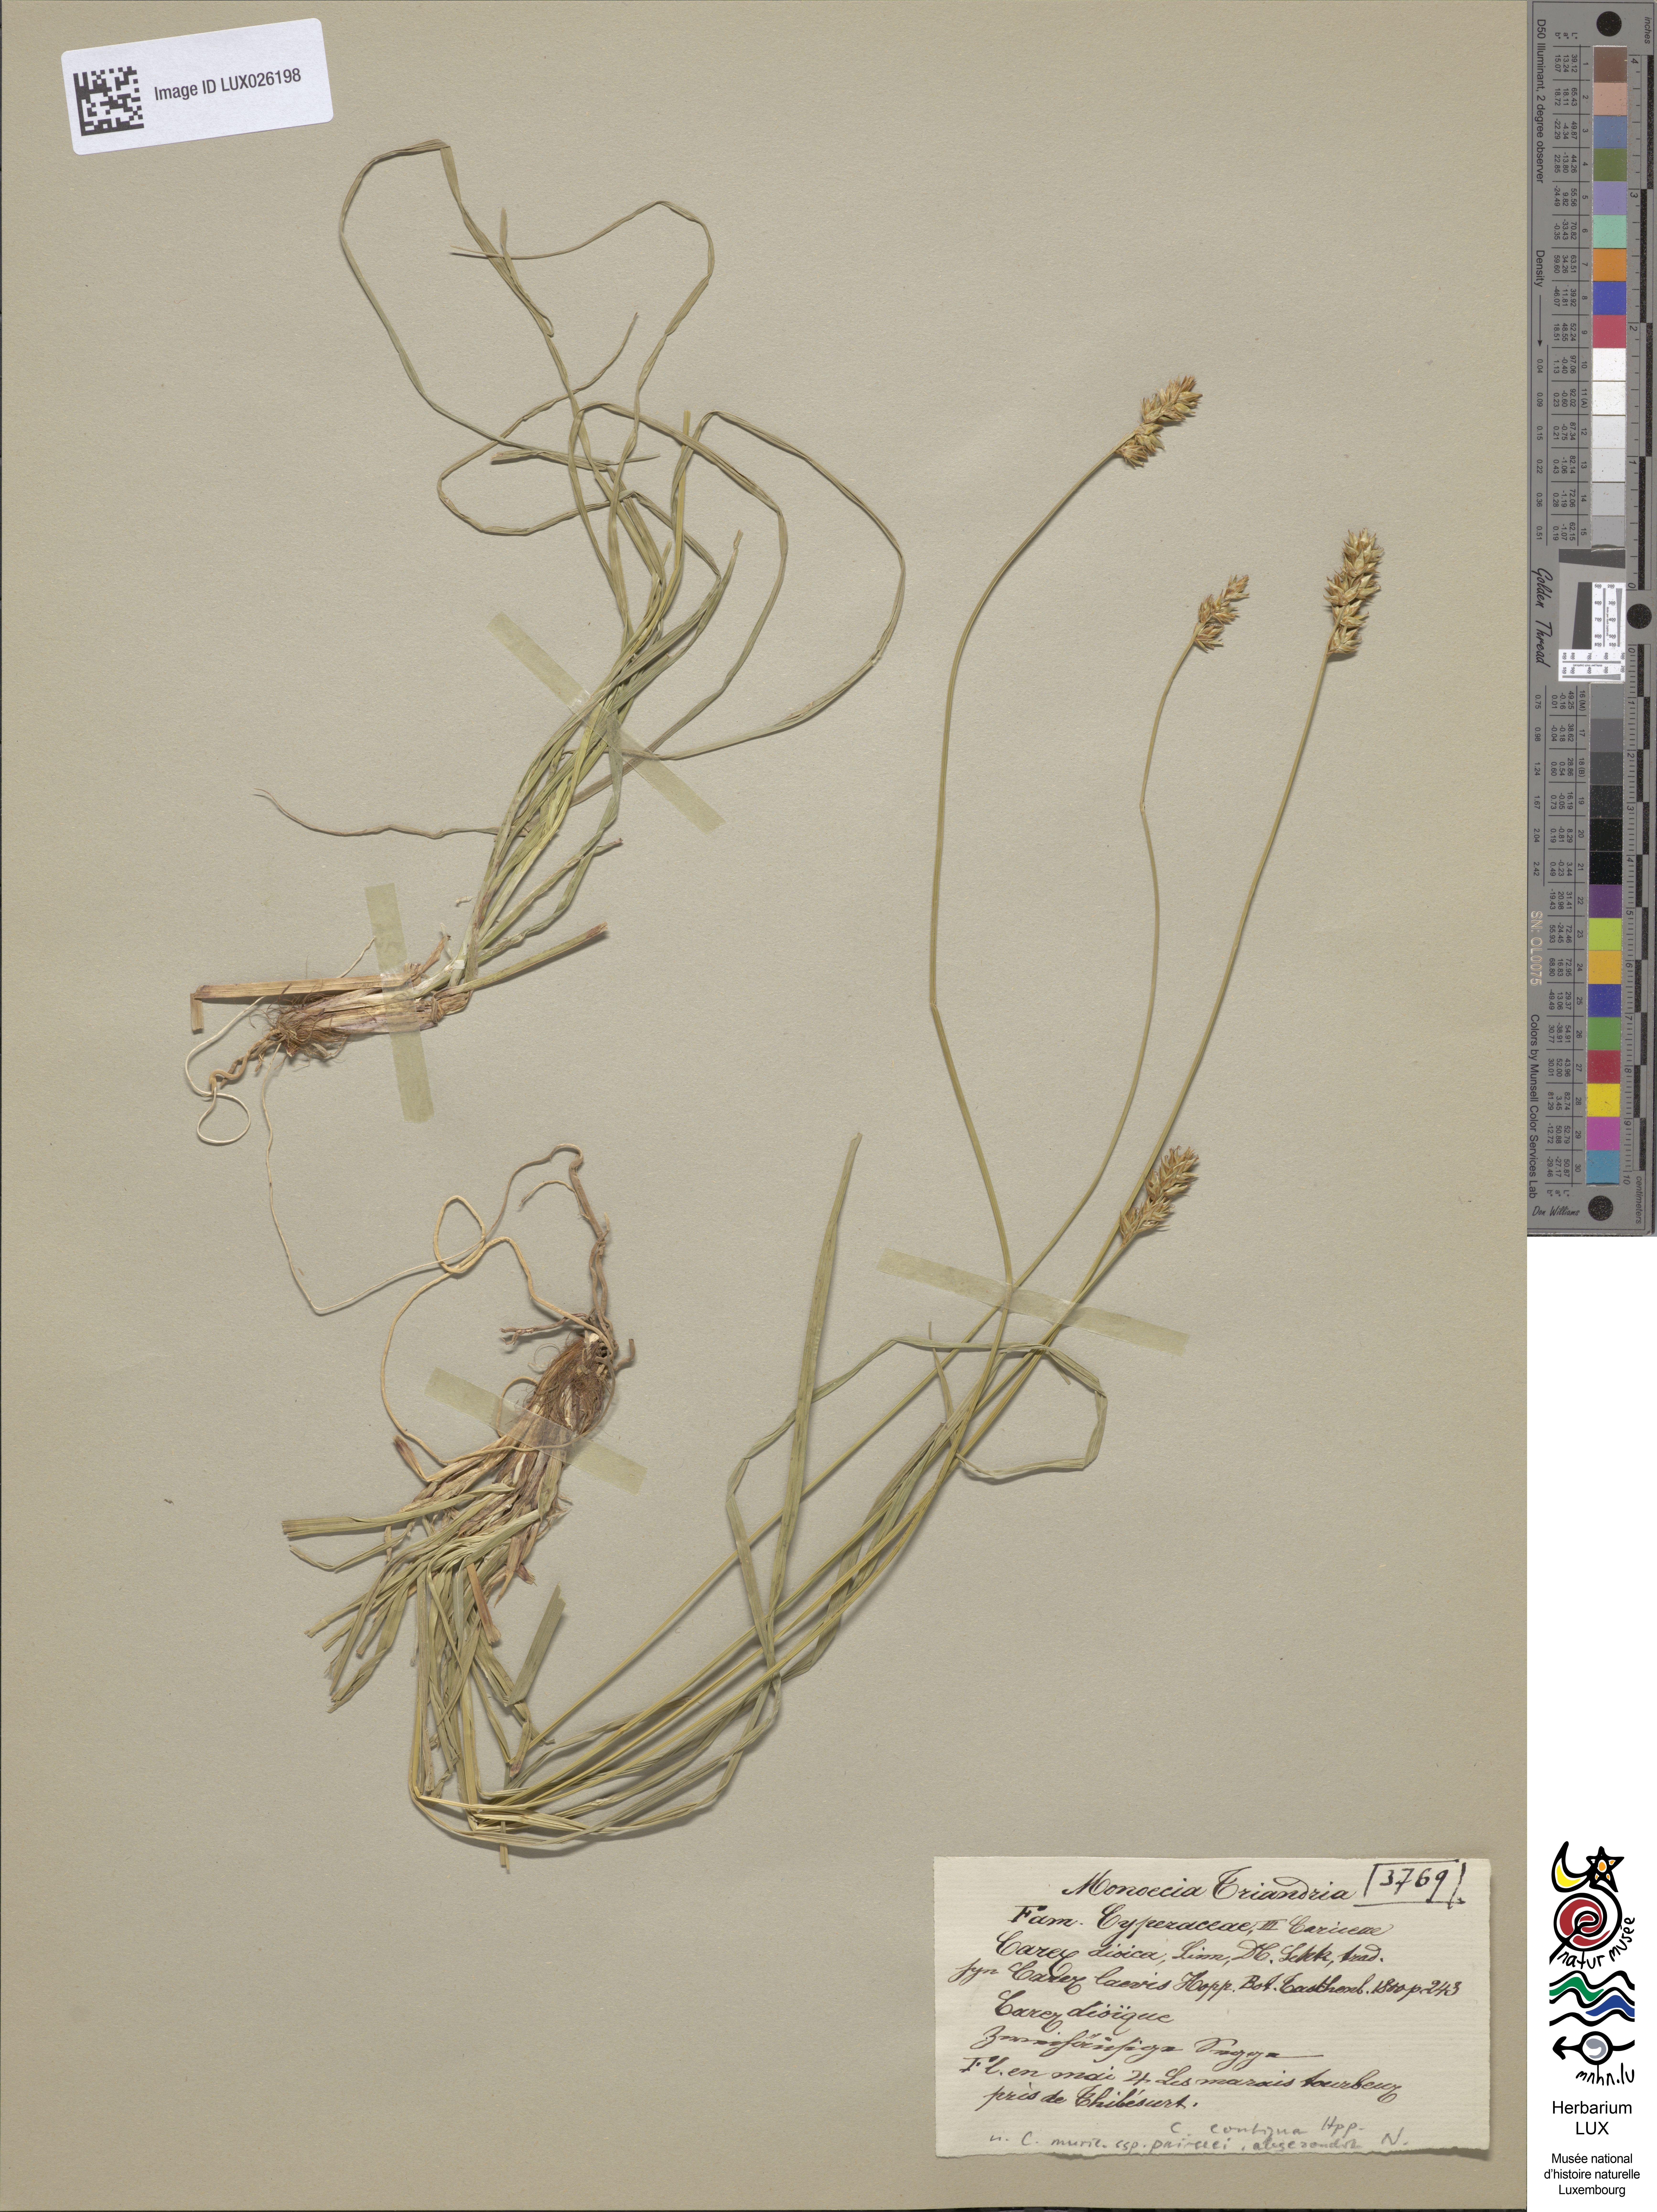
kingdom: Plantae
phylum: Tracheophyta
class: Liliopsida
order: Poales
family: Cyperaceae
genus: Carex
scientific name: Carex spicata
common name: Spiked sedge
